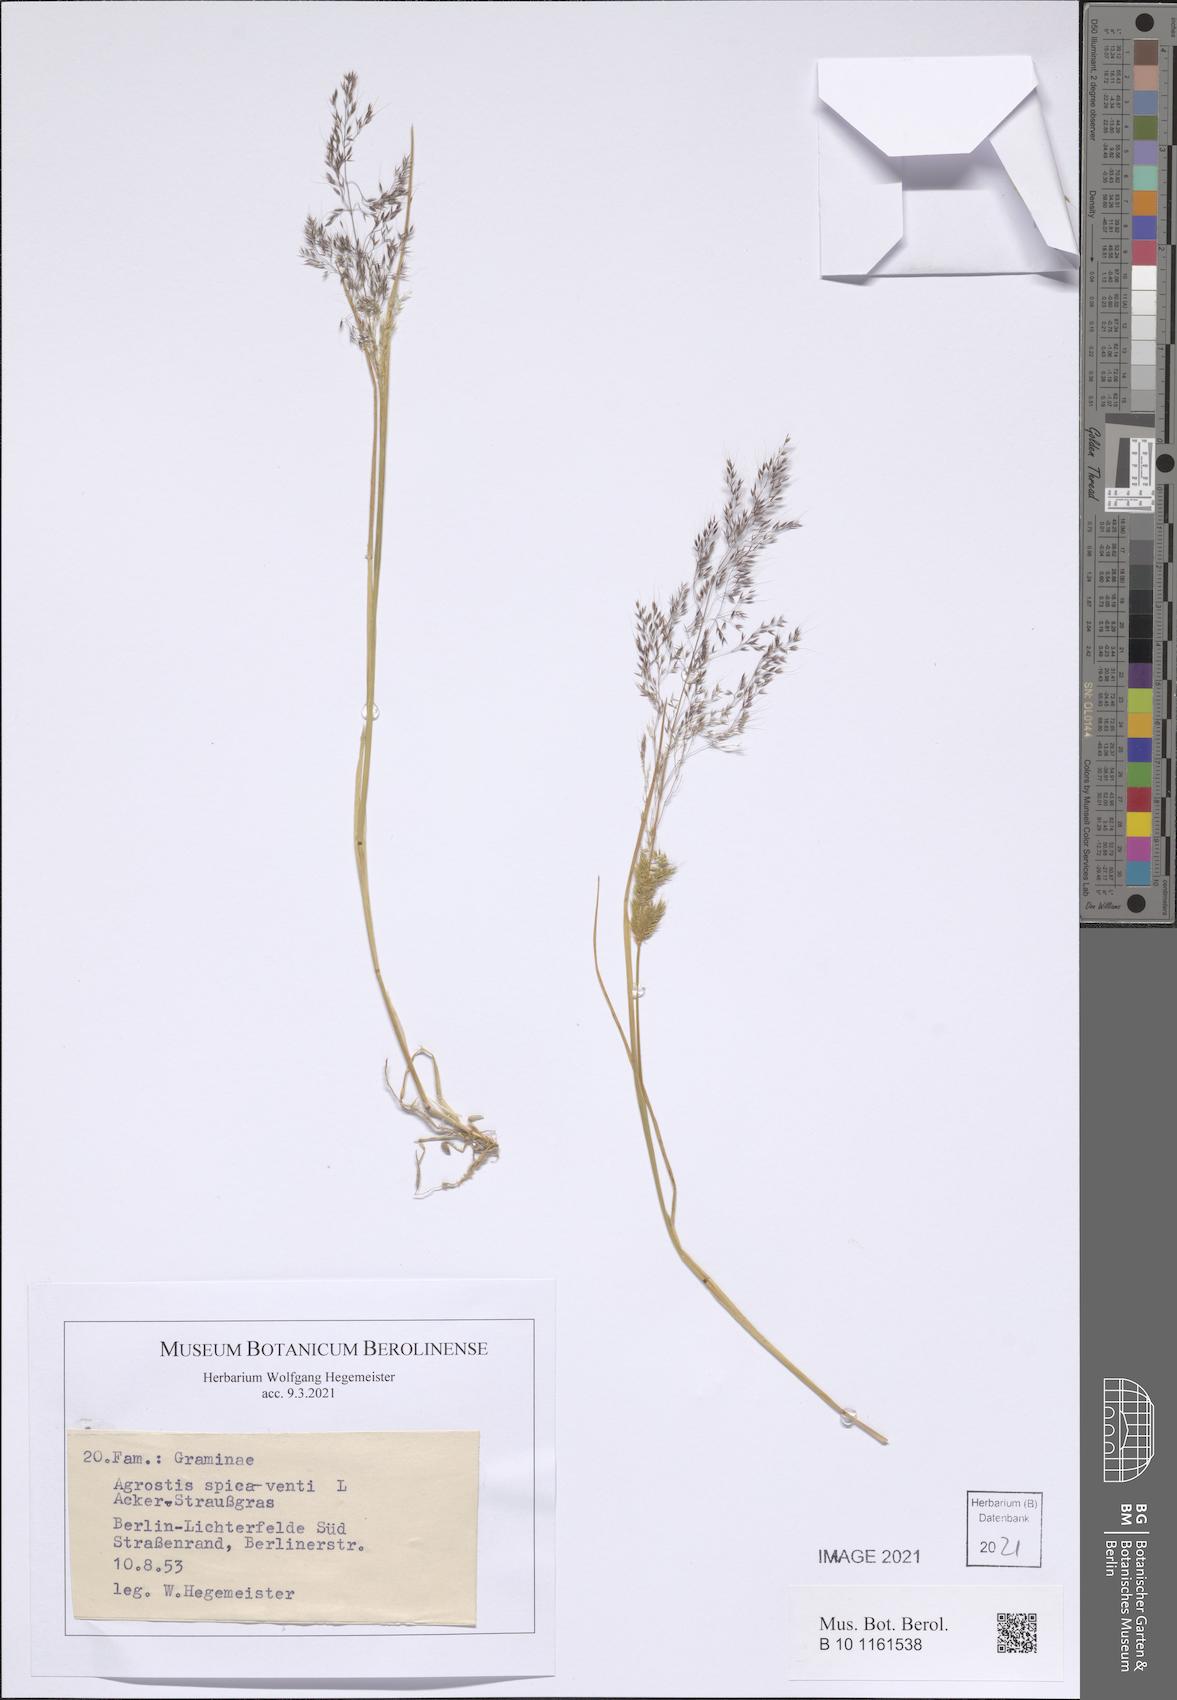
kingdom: Plantae
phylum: Tracheophyta
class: Liliopsida
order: Poales
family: Poaceae
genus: Apera
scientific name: Apera spica-venti
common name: Loose silky-bent
